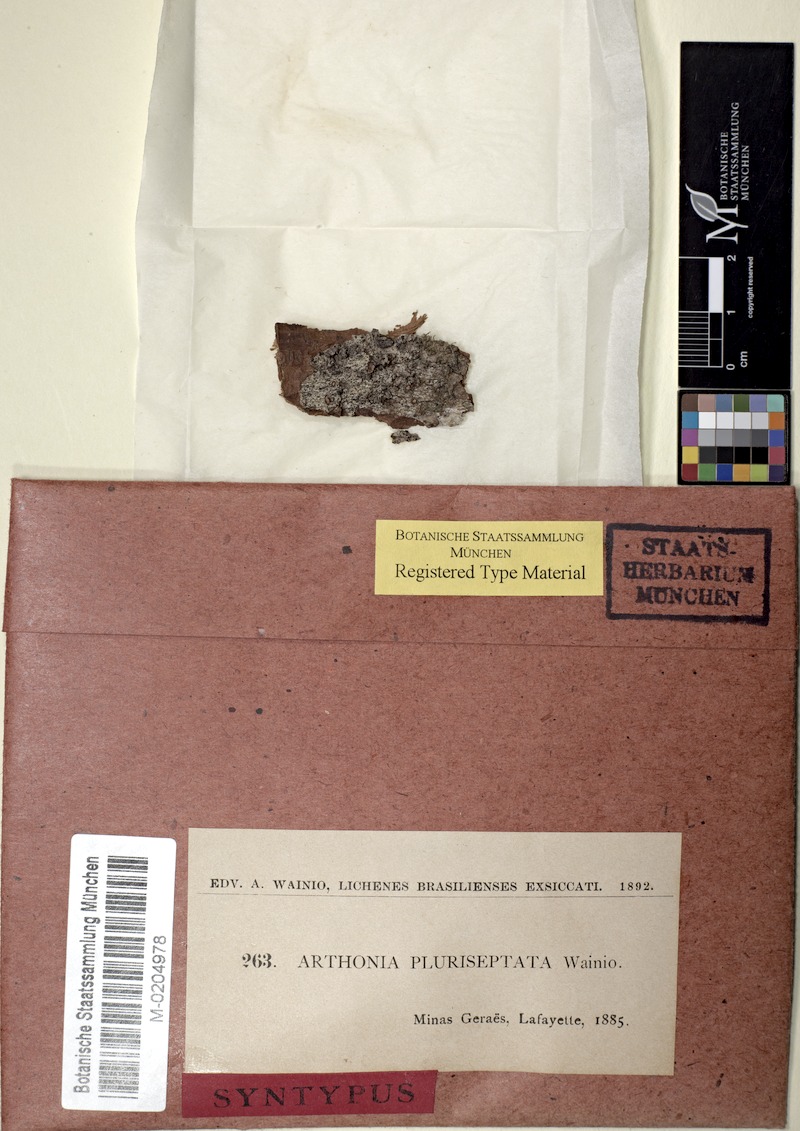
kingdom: Fungi
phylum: Ascomycota
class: Arthoniomycetes
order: Arthoniales
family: Arthoniaceae
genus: Arthonia
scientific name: Arthonia
